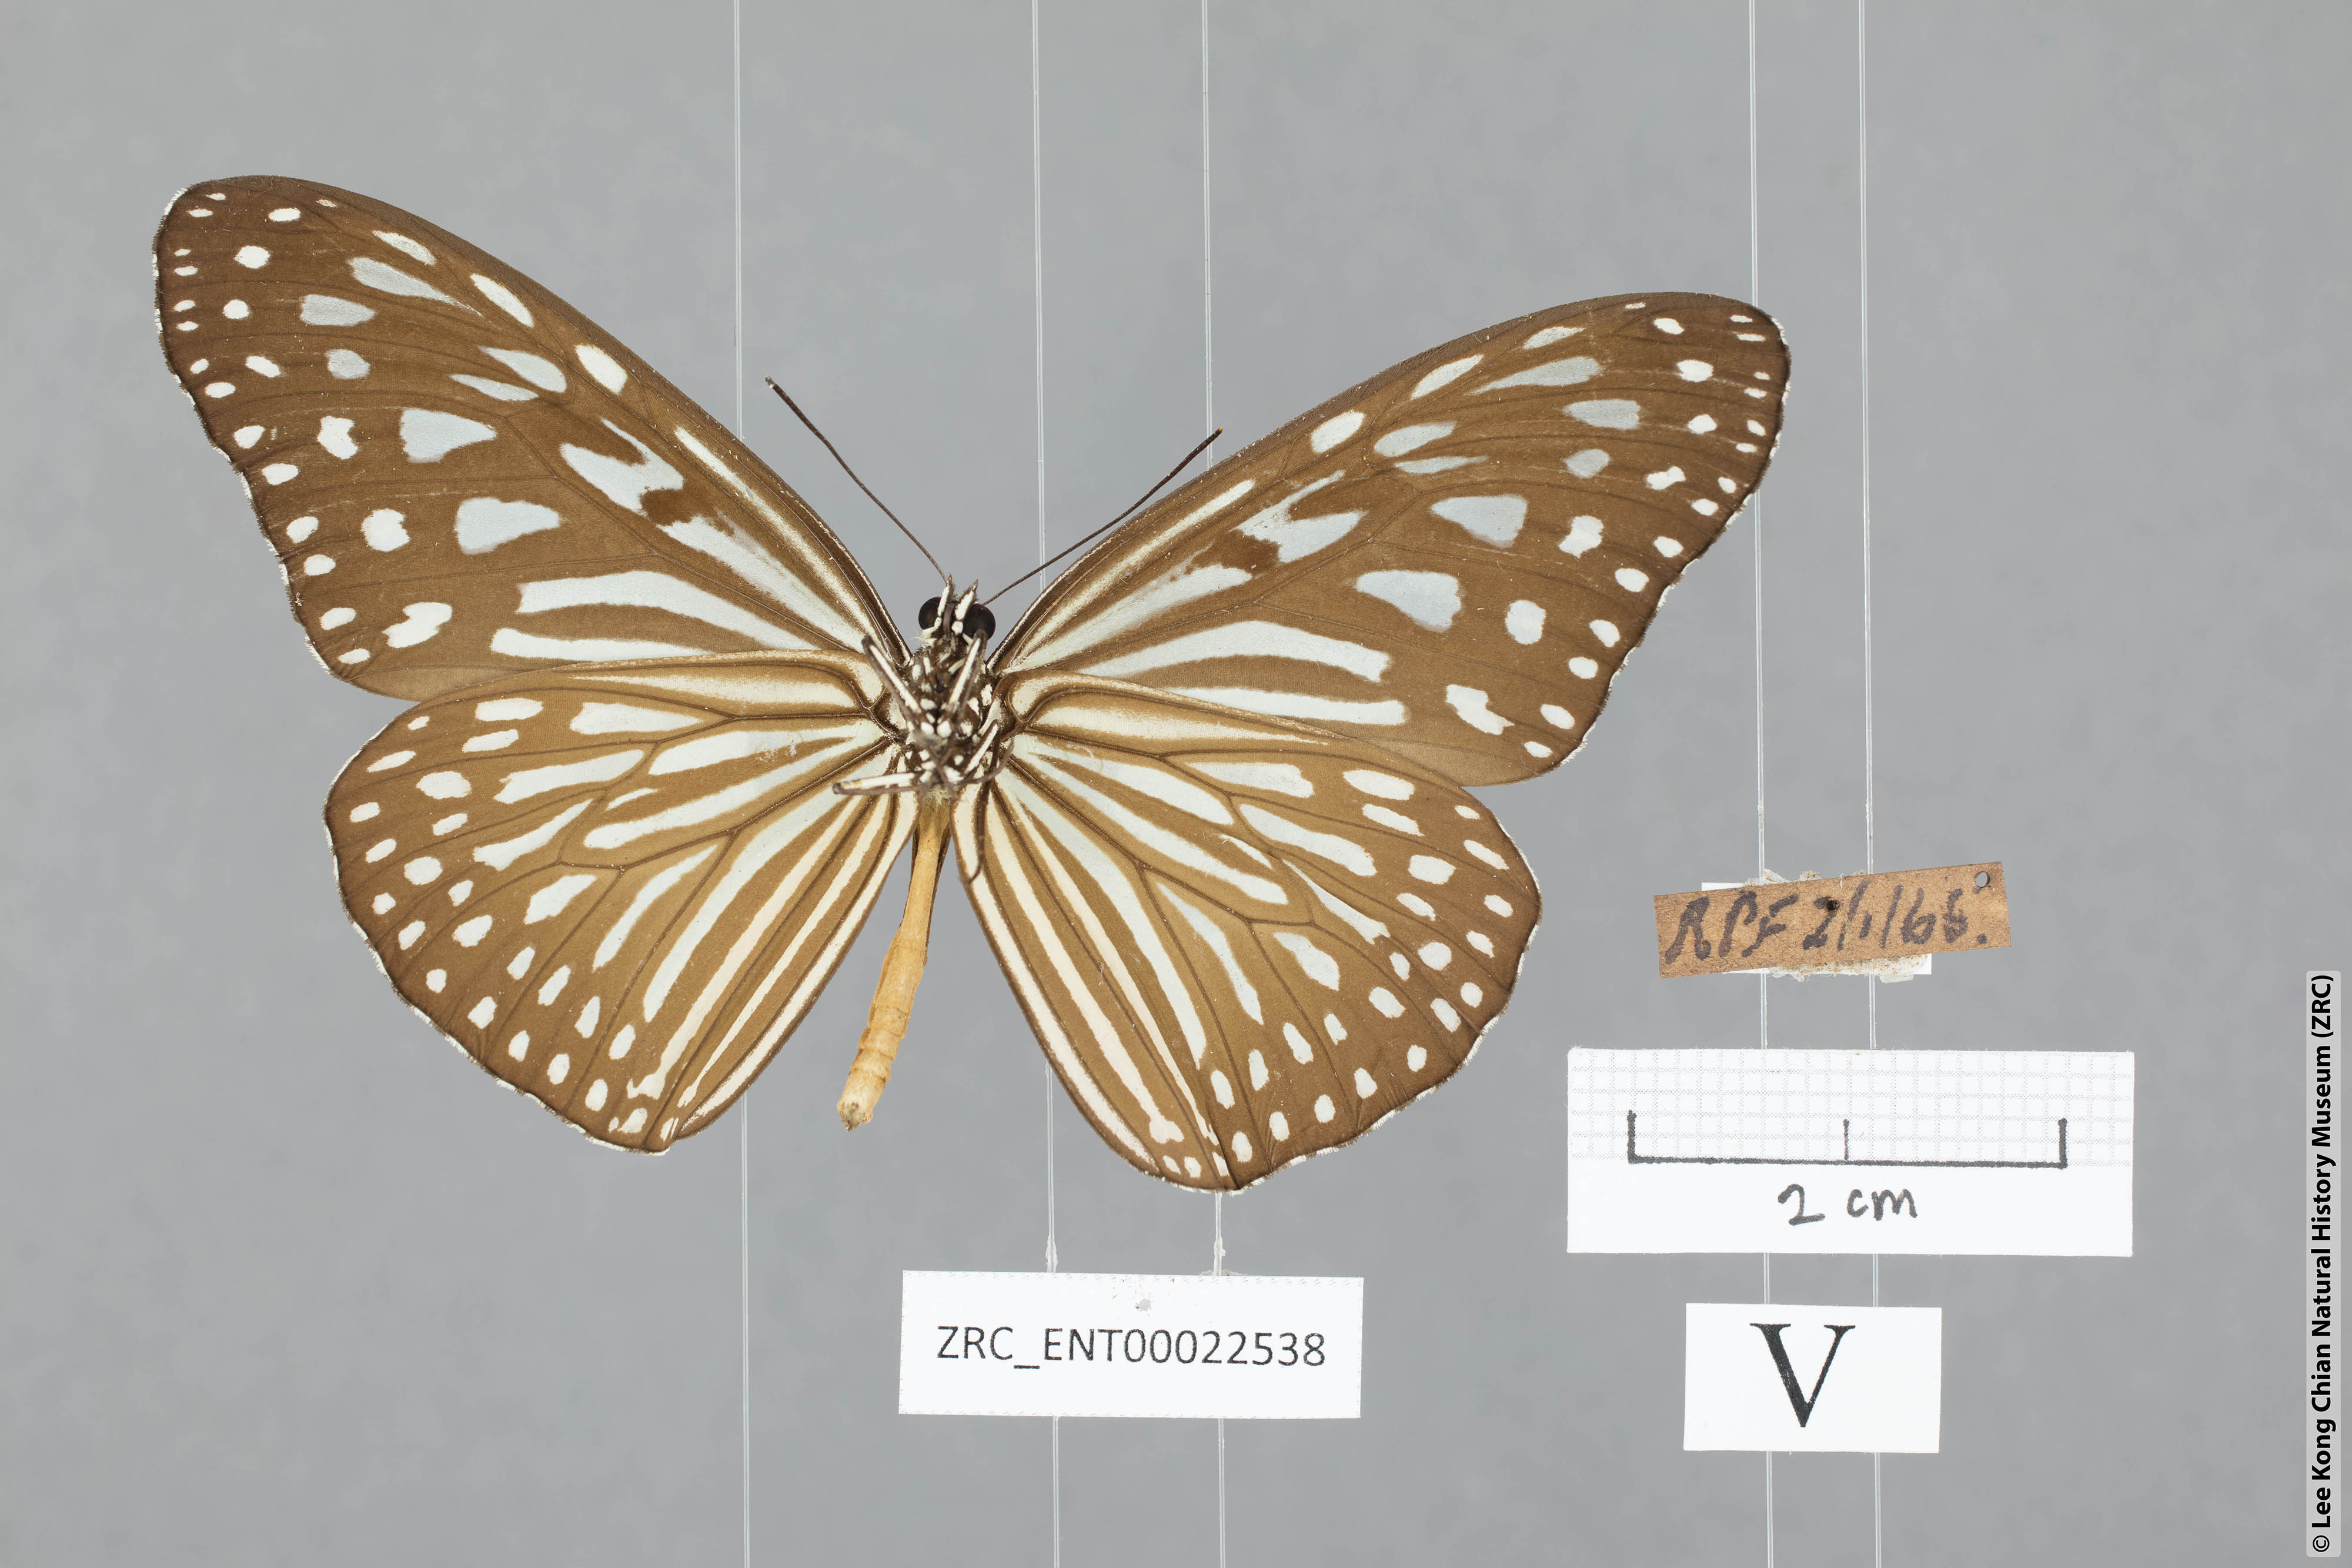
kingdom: Animalia
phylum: Arthropoda
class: Insecta
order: Lepidoptera
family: Nymphalidae
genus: Ideopsis
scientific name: Ideopsis vulgaris
